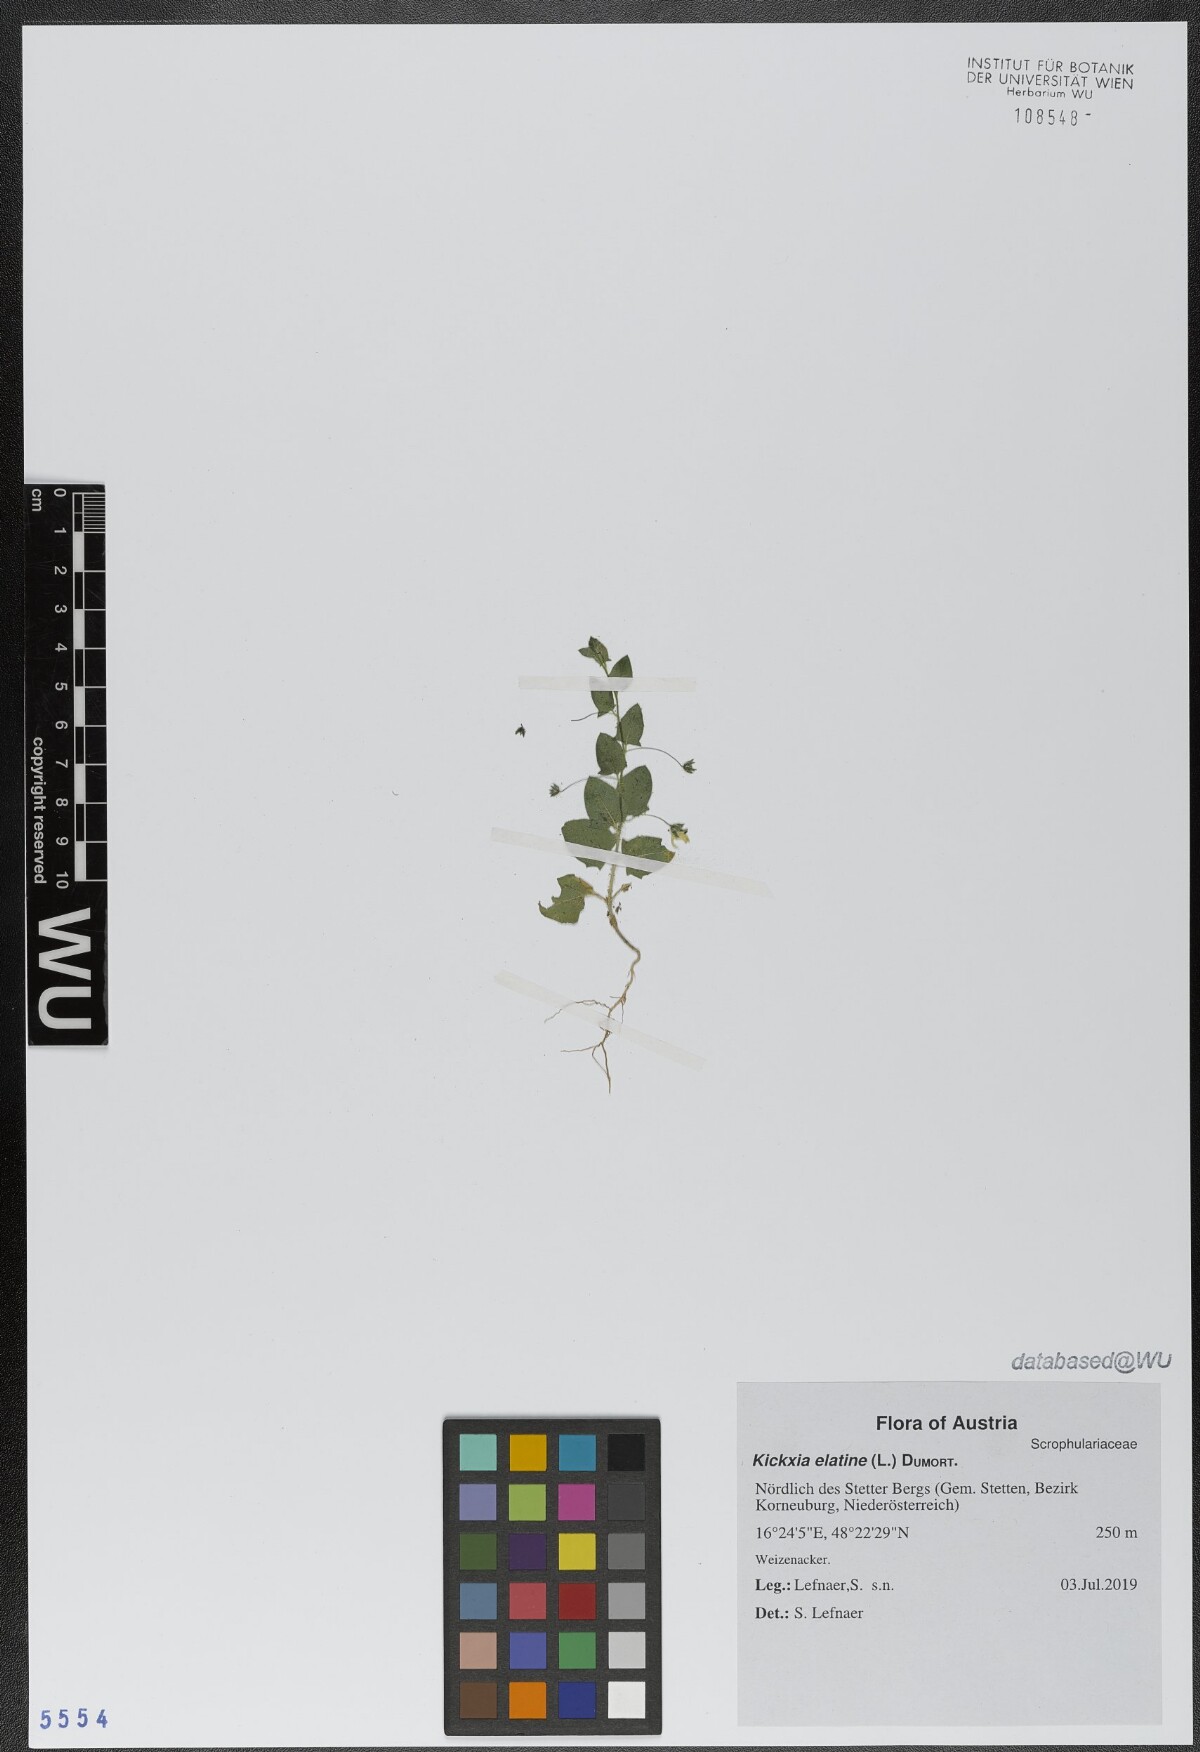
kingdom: Plantae
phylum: Tracheophyta
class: Magnoliopsida
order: Lamiales
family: Plantaginaceae
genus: Kickxia
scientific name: Kickxia elatine
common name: Sharp-leaved fluellen
